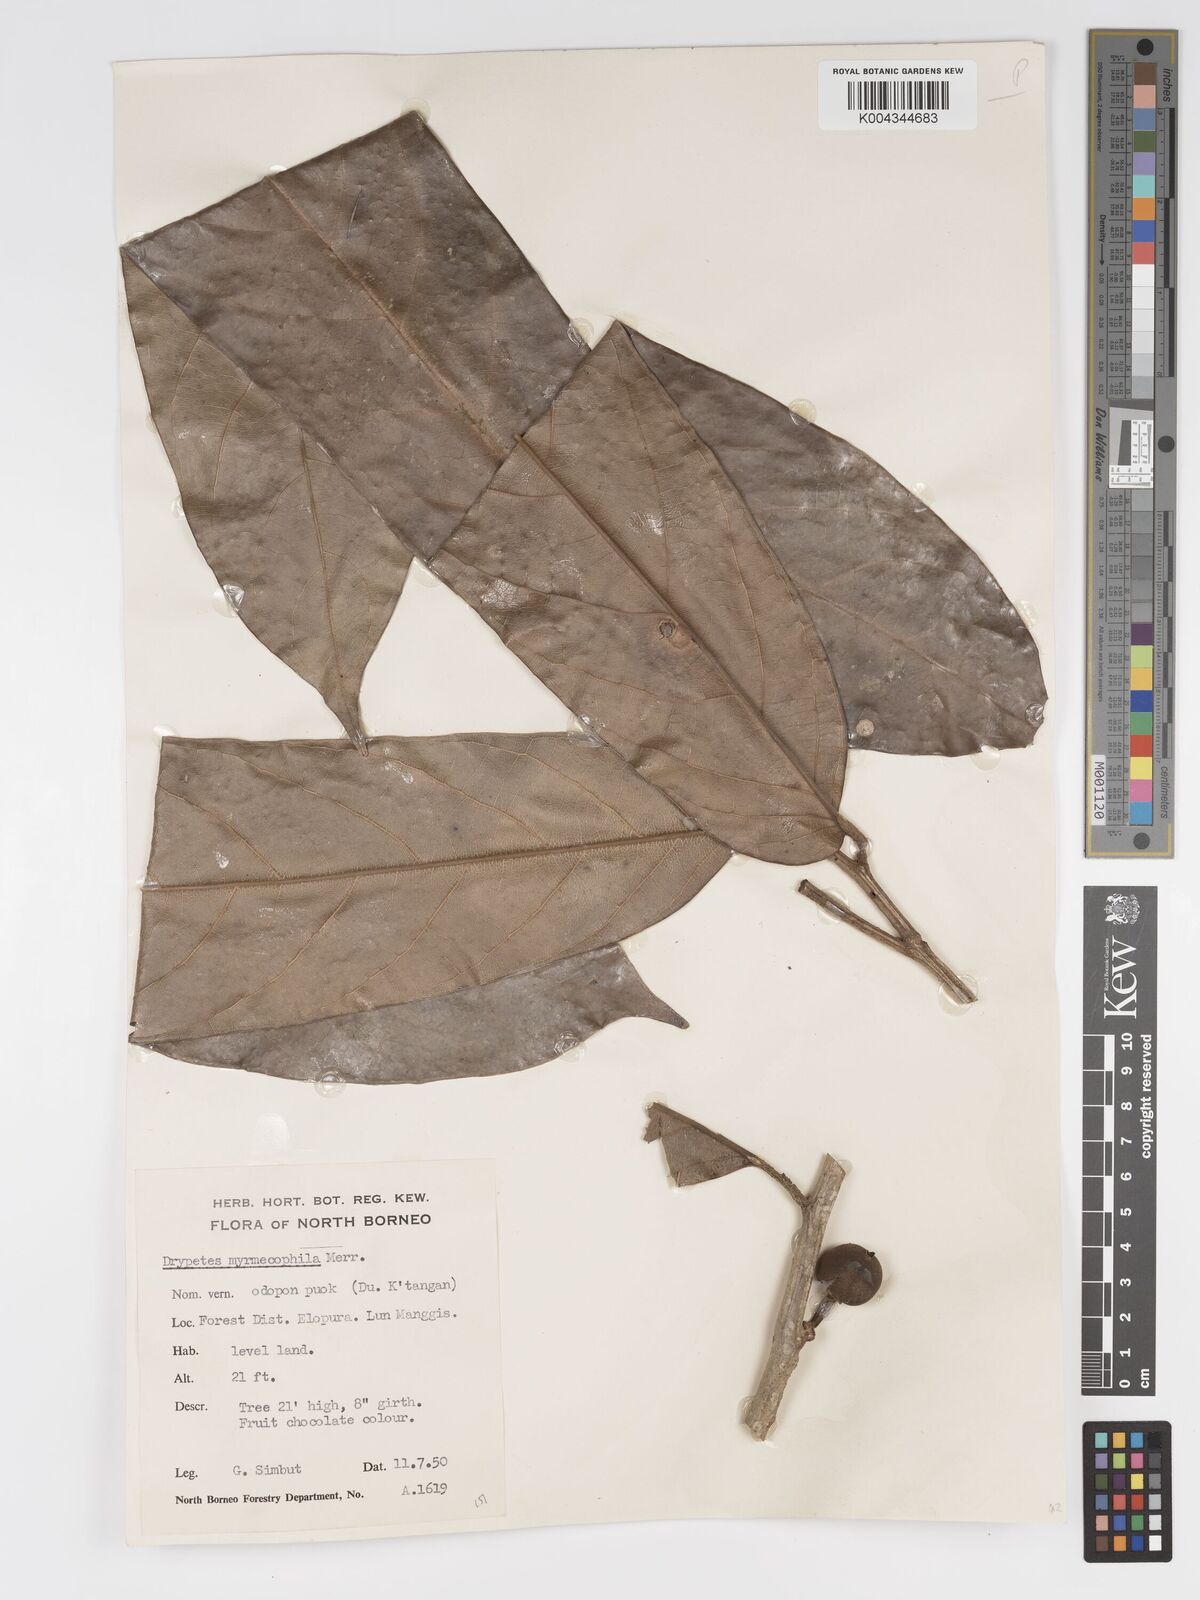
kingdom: Plantae
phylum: Tracheophyta
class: Magnoliopsida
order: Malpighiales
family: Putranjivaceae
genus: Drypetes
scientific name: Drypetes longifolia
